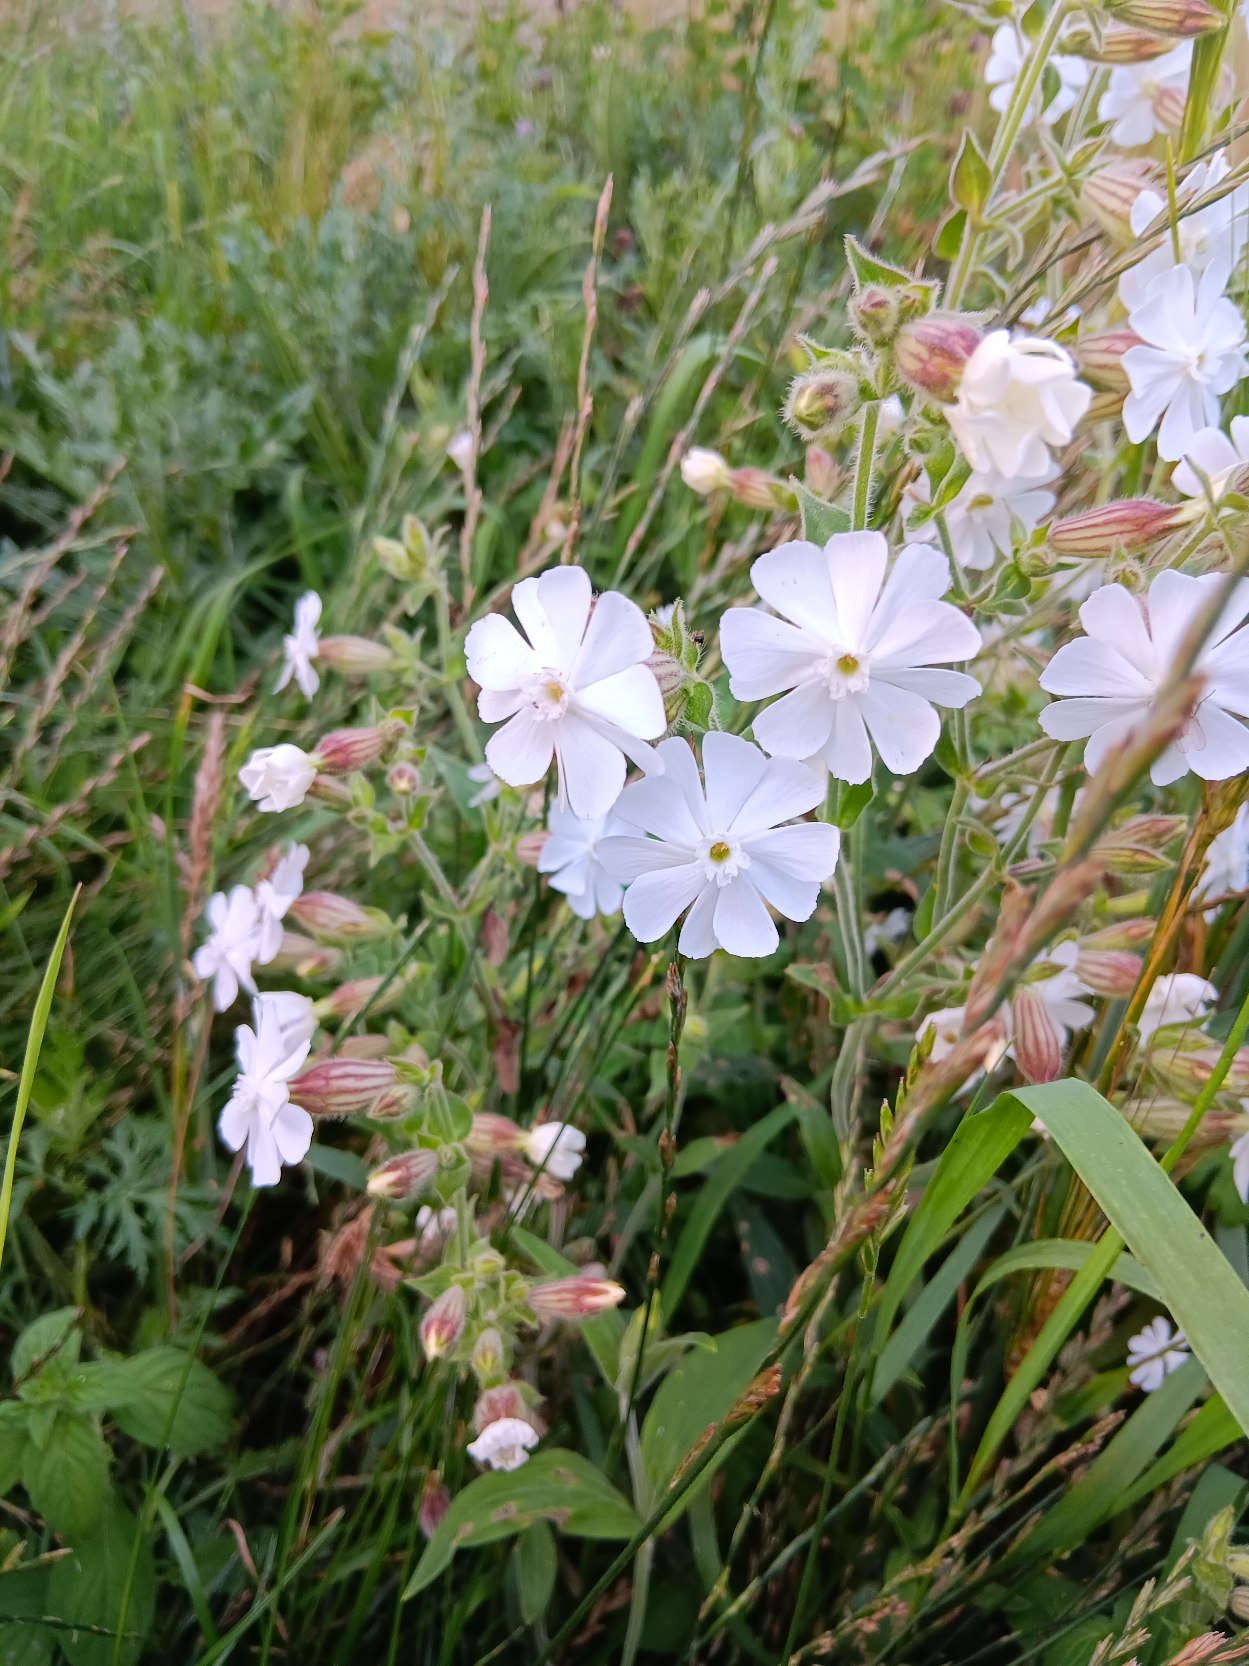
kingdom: Plantae
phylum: Tracheophyta
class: Magnoliopsida
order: Caryophyllales
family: Caryophyllaceae
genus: Silene
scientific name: Silene latifolia
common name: Aftenpragtstjerne
